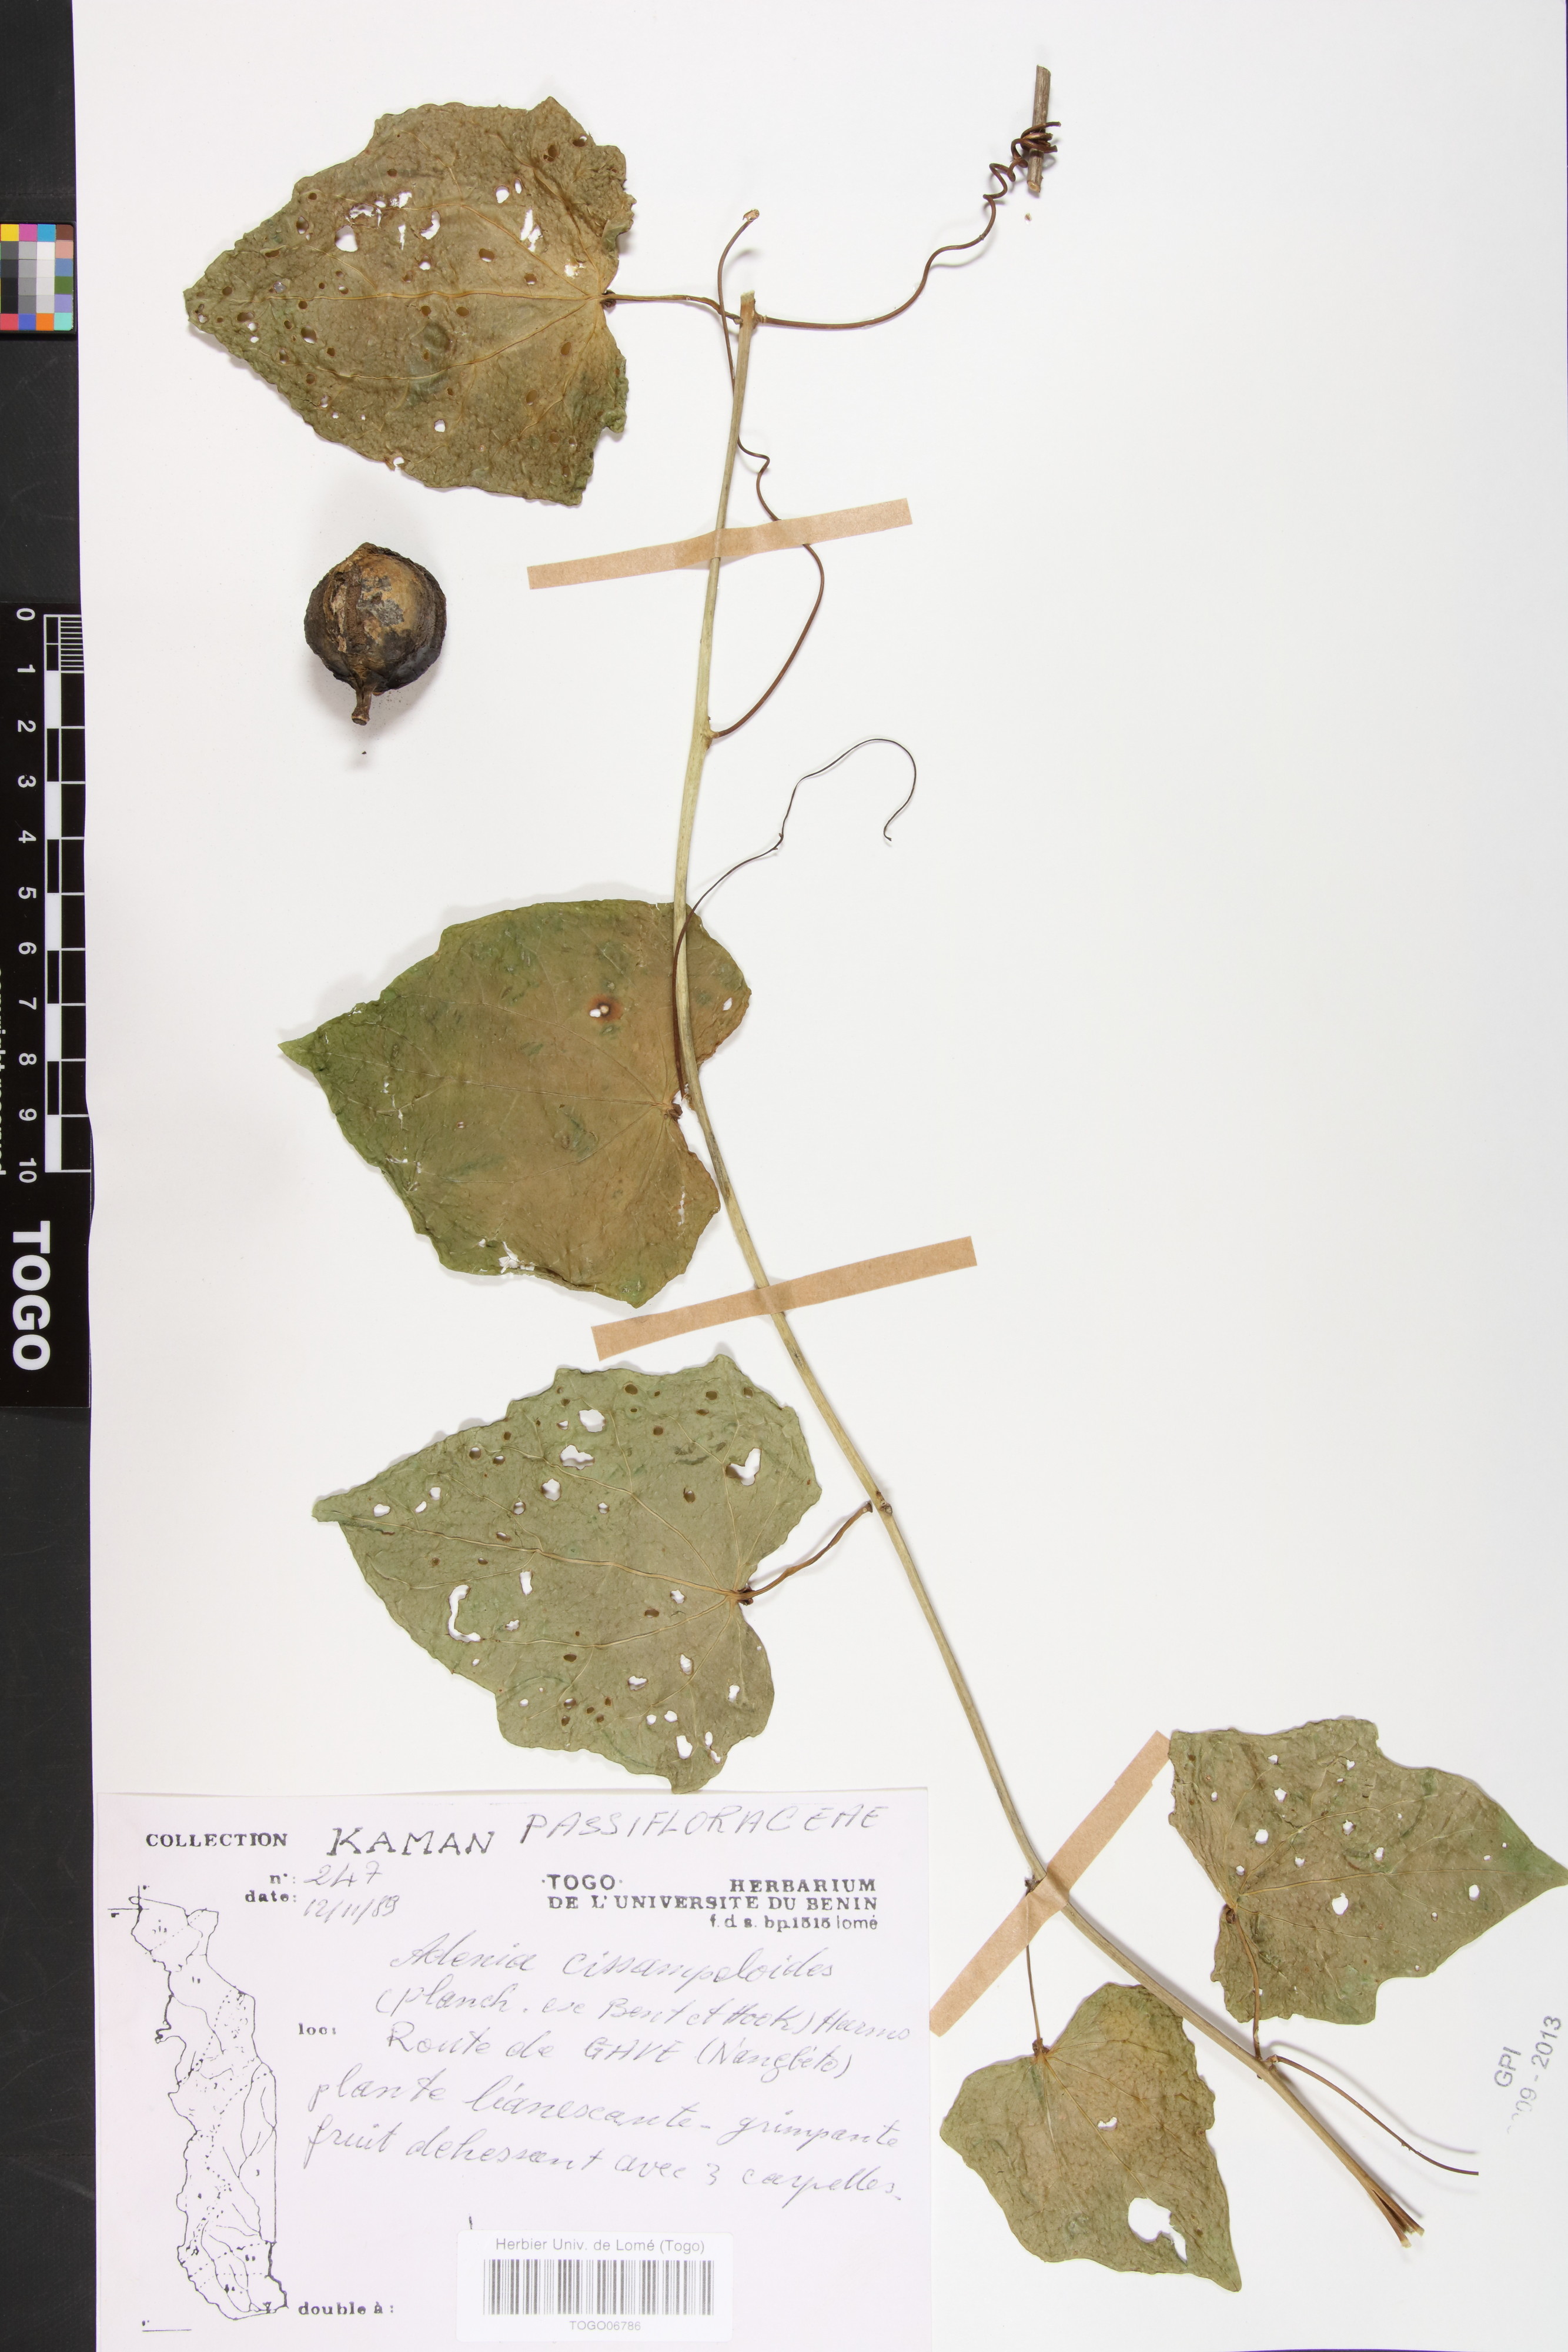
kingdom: Plantae
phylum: Tracheophyta
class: Magnoliopsida
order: Malpighiales
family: Passifloraceae
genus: Adenia
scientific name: Adenia cissampeloides
